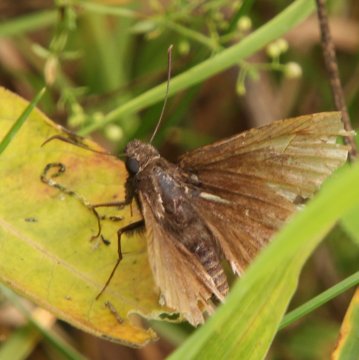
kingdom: Animalia
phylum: Arthropoda
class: Insecta
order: Lepidoptera
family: Hesperiidae
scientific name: Hesperiidae
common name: Skippers
